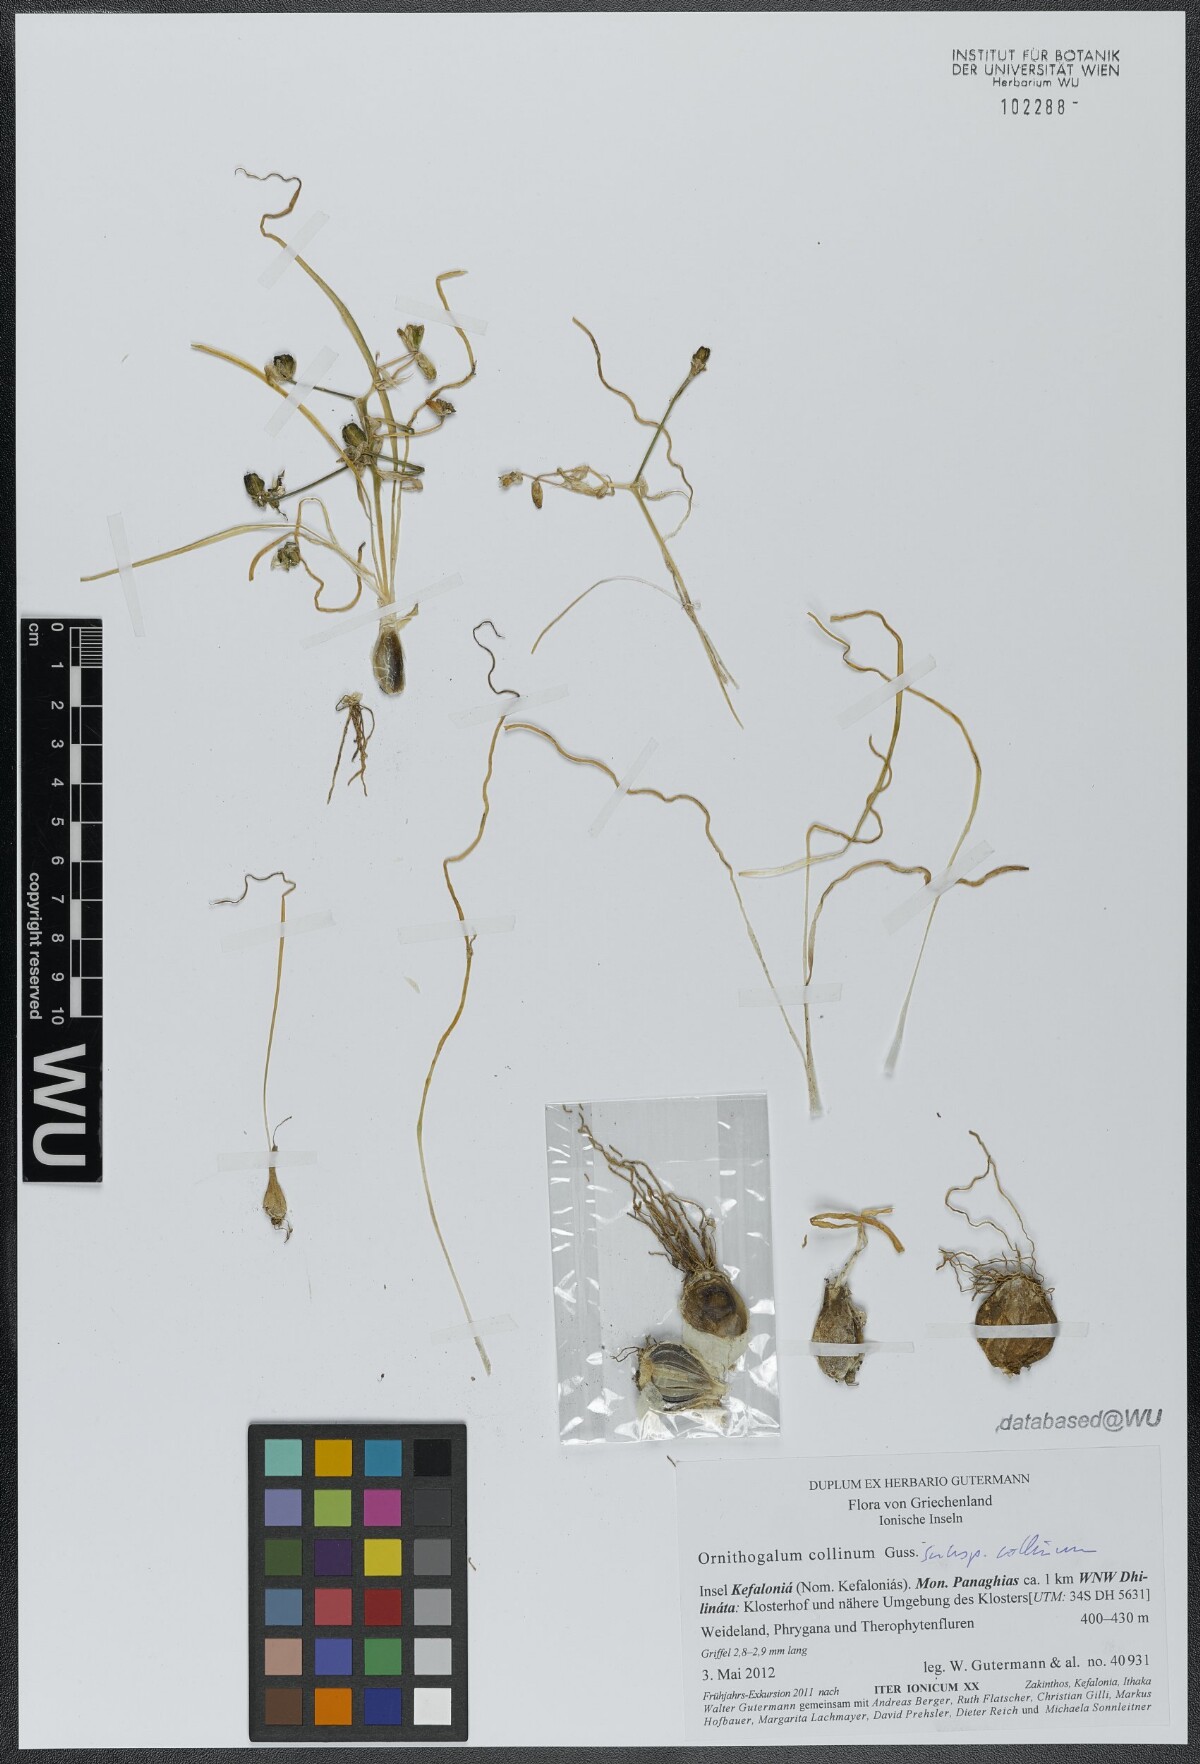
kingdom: Plantae
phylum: Tracheophyta
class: Liliopsida
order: Asparagales
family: Asparagaceae
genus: Ornithogalum
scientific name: Ornithogalum collinum
